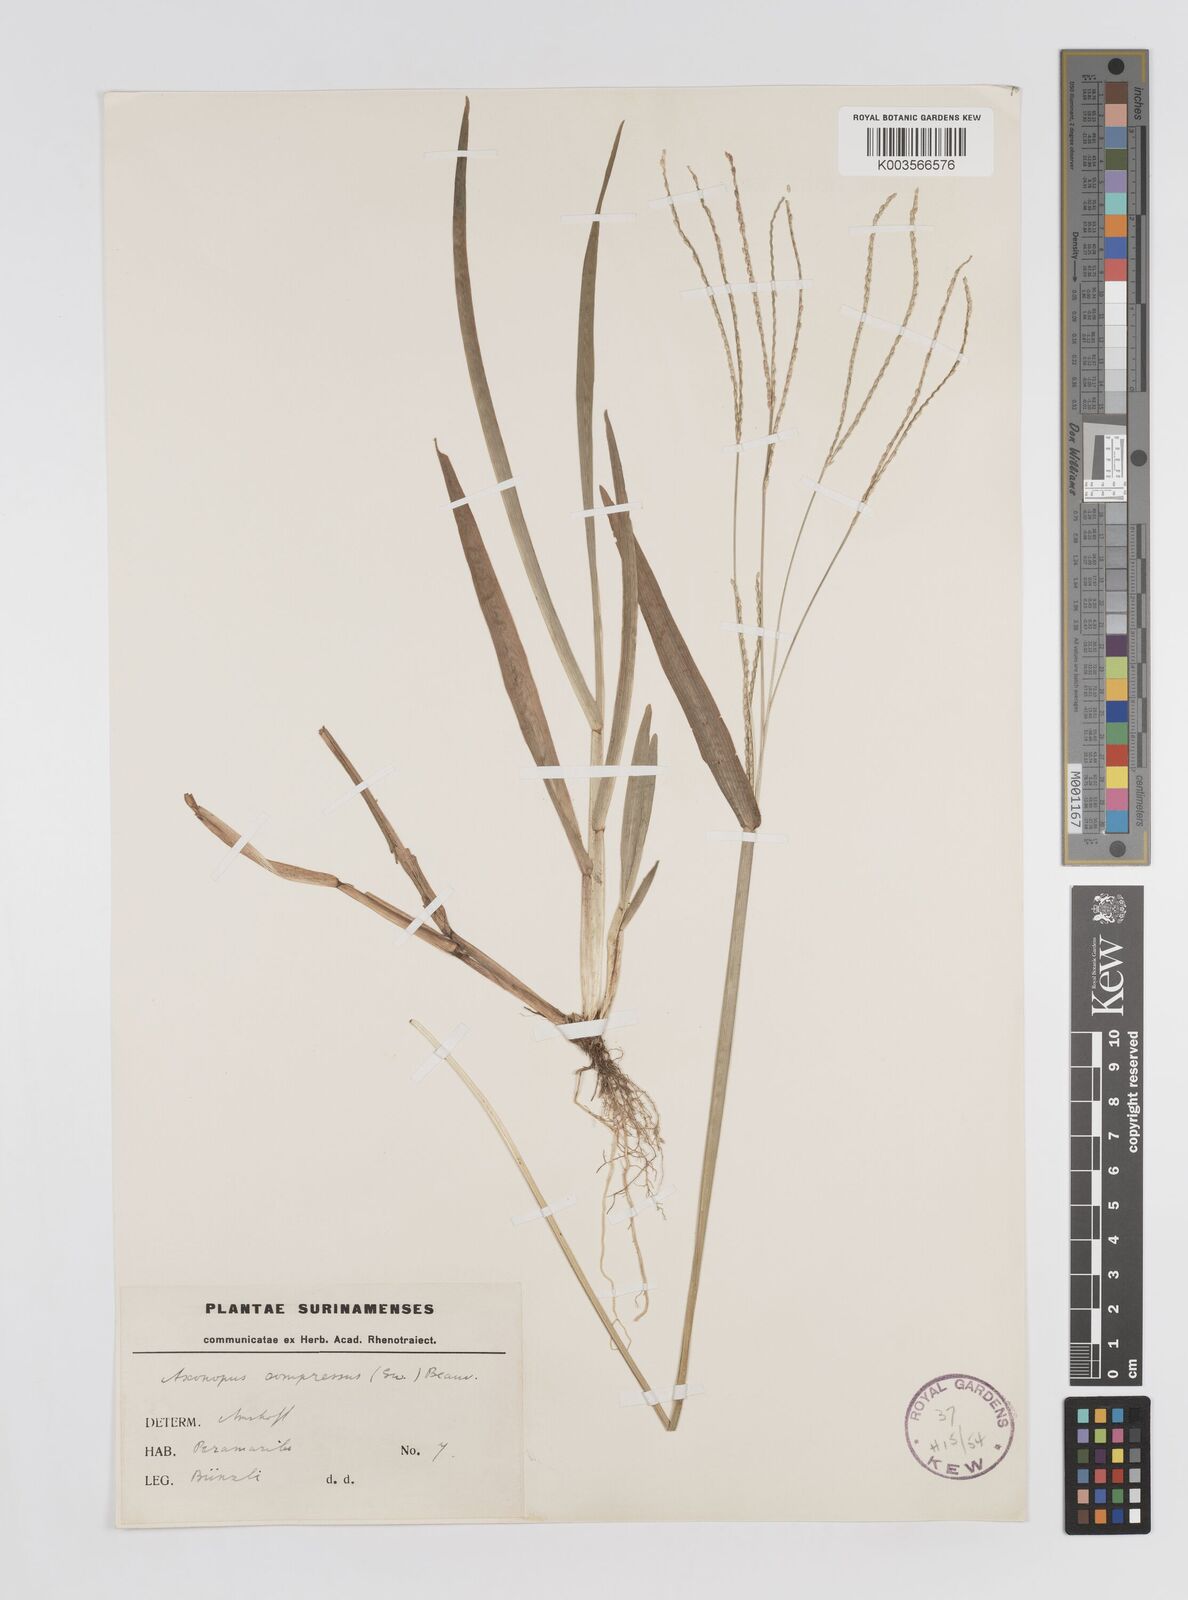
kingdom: Plantae
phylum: Tracheophyta
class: Liliopsida
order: Poales
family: Poaceae
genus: Axonopus
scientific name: Axonopus compressus
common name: American carpet grass
